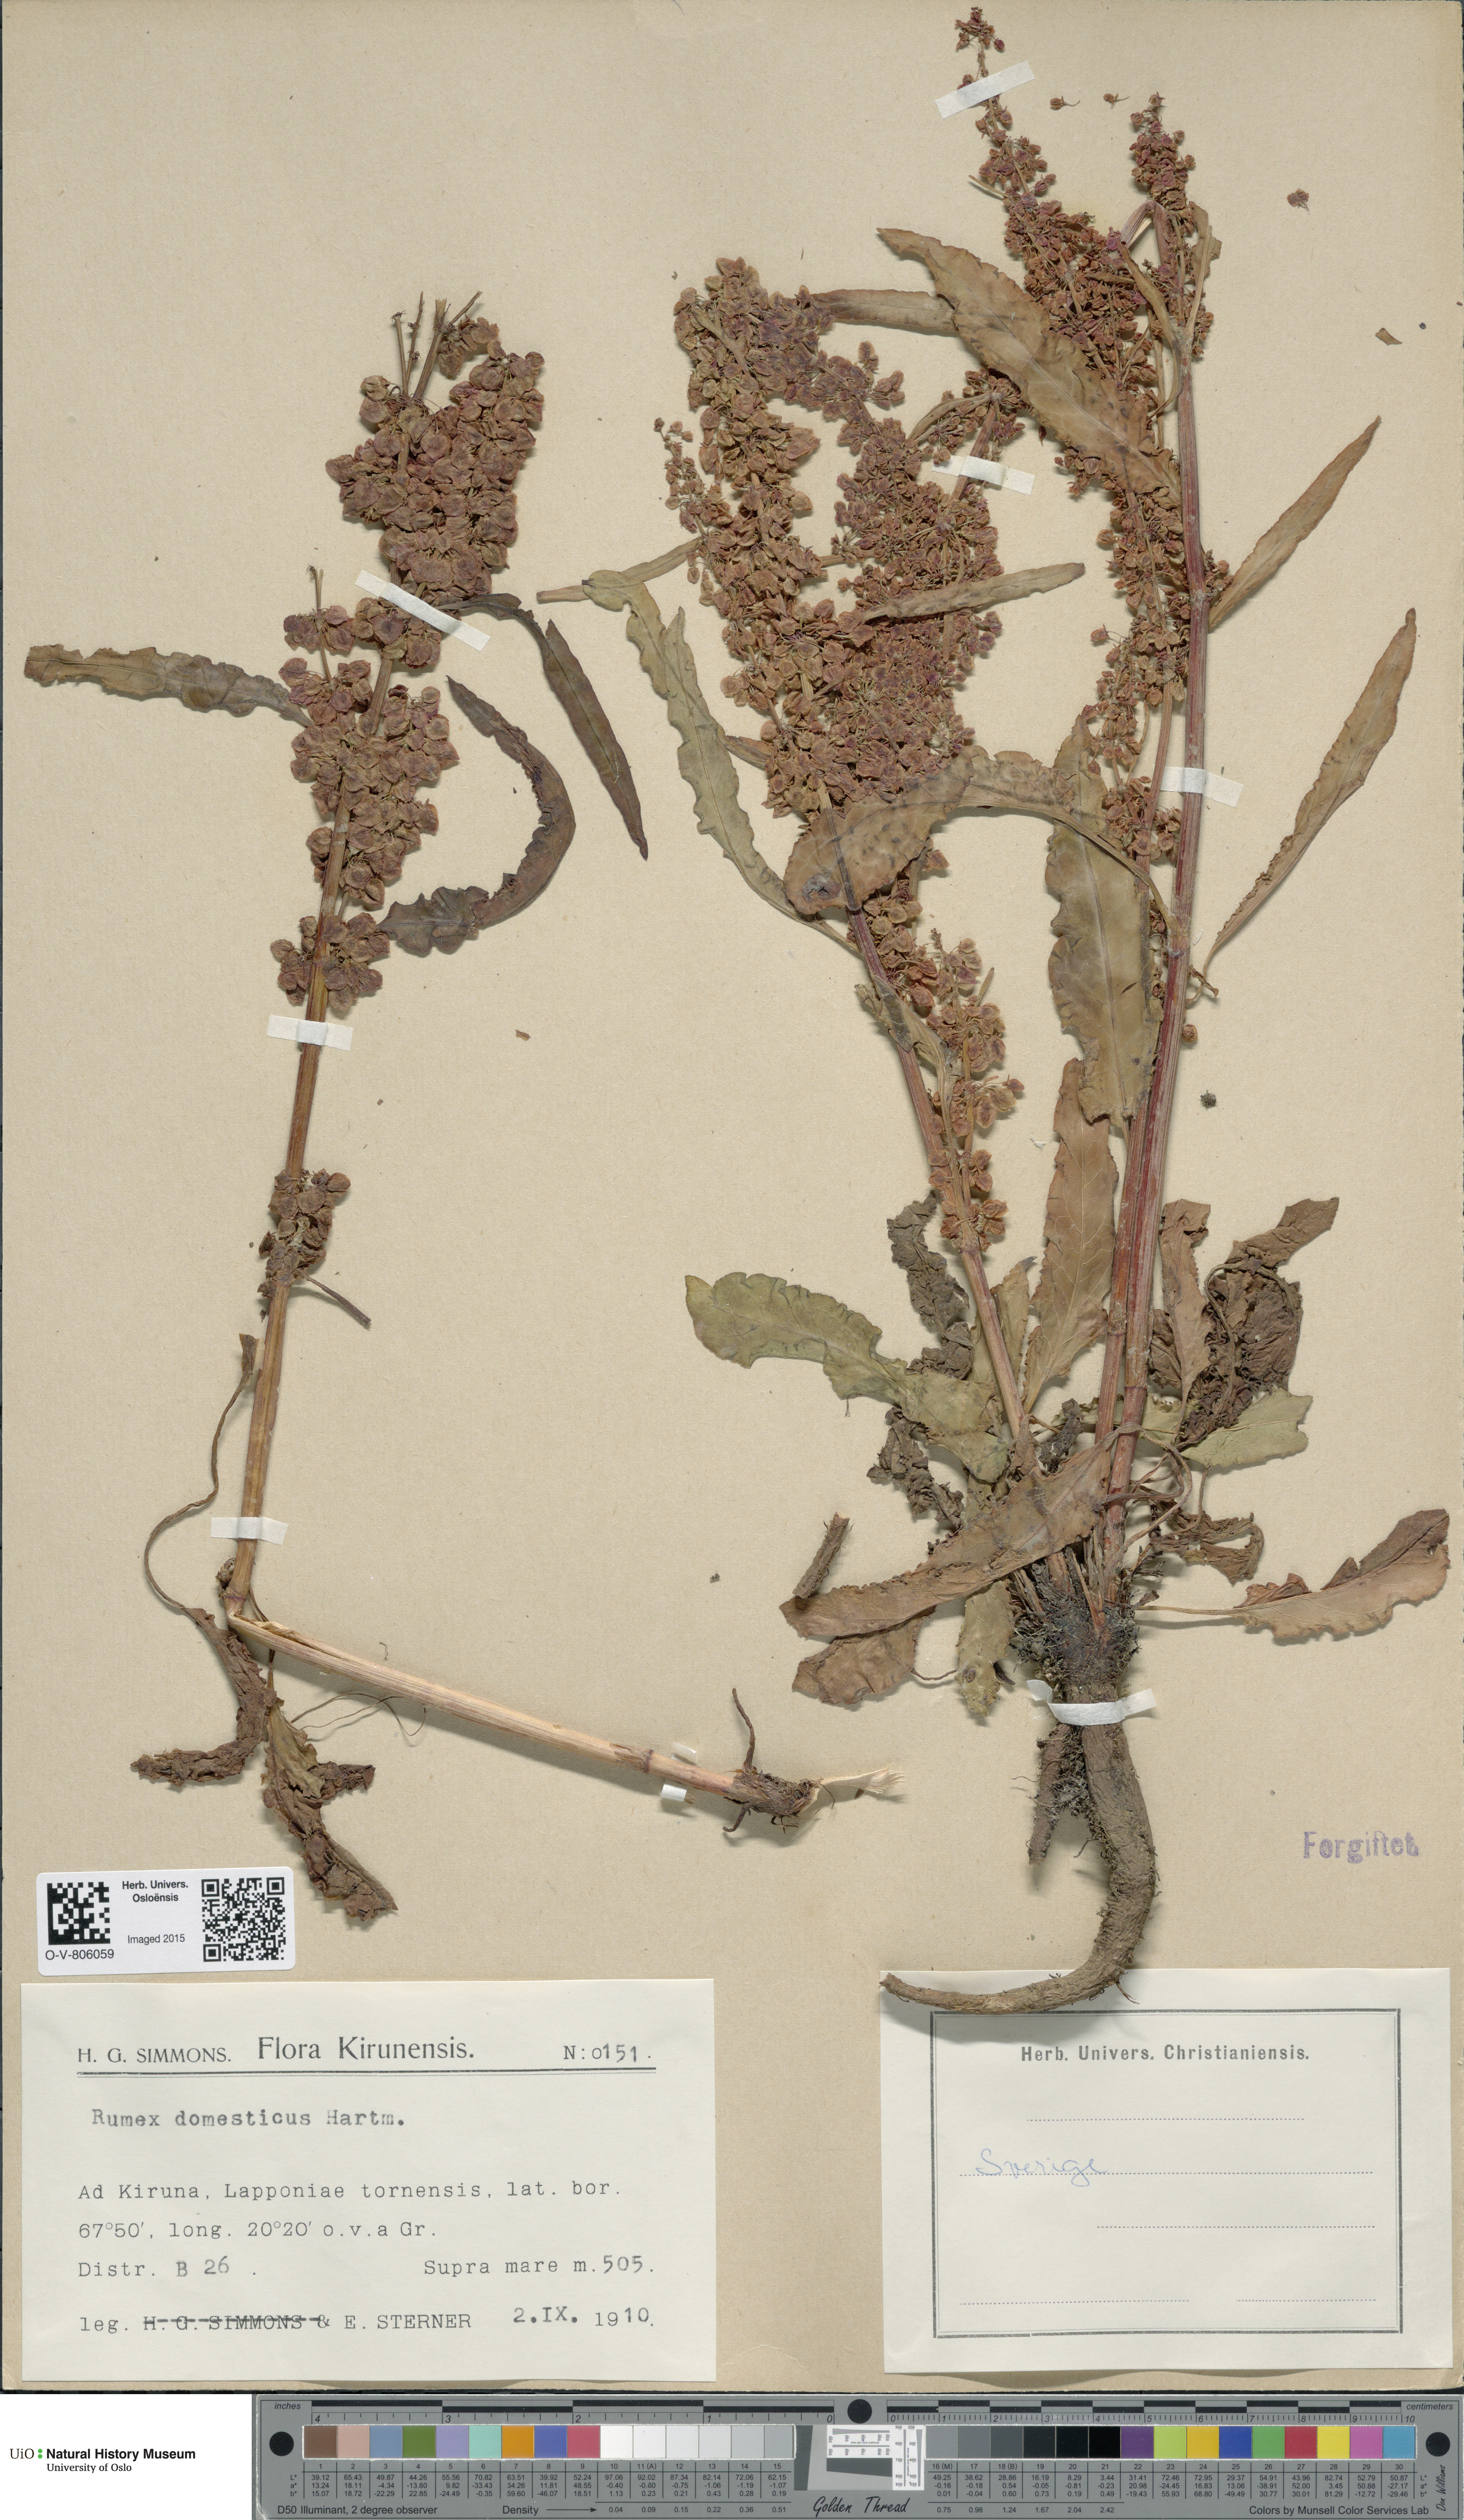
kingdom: Plantae
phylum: Tracheophyta
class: Magnoliopsida
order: Caryophyllales
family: Polygonaceae
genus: Rumex
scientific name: Rumex longifolius
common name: Dooryard dock
